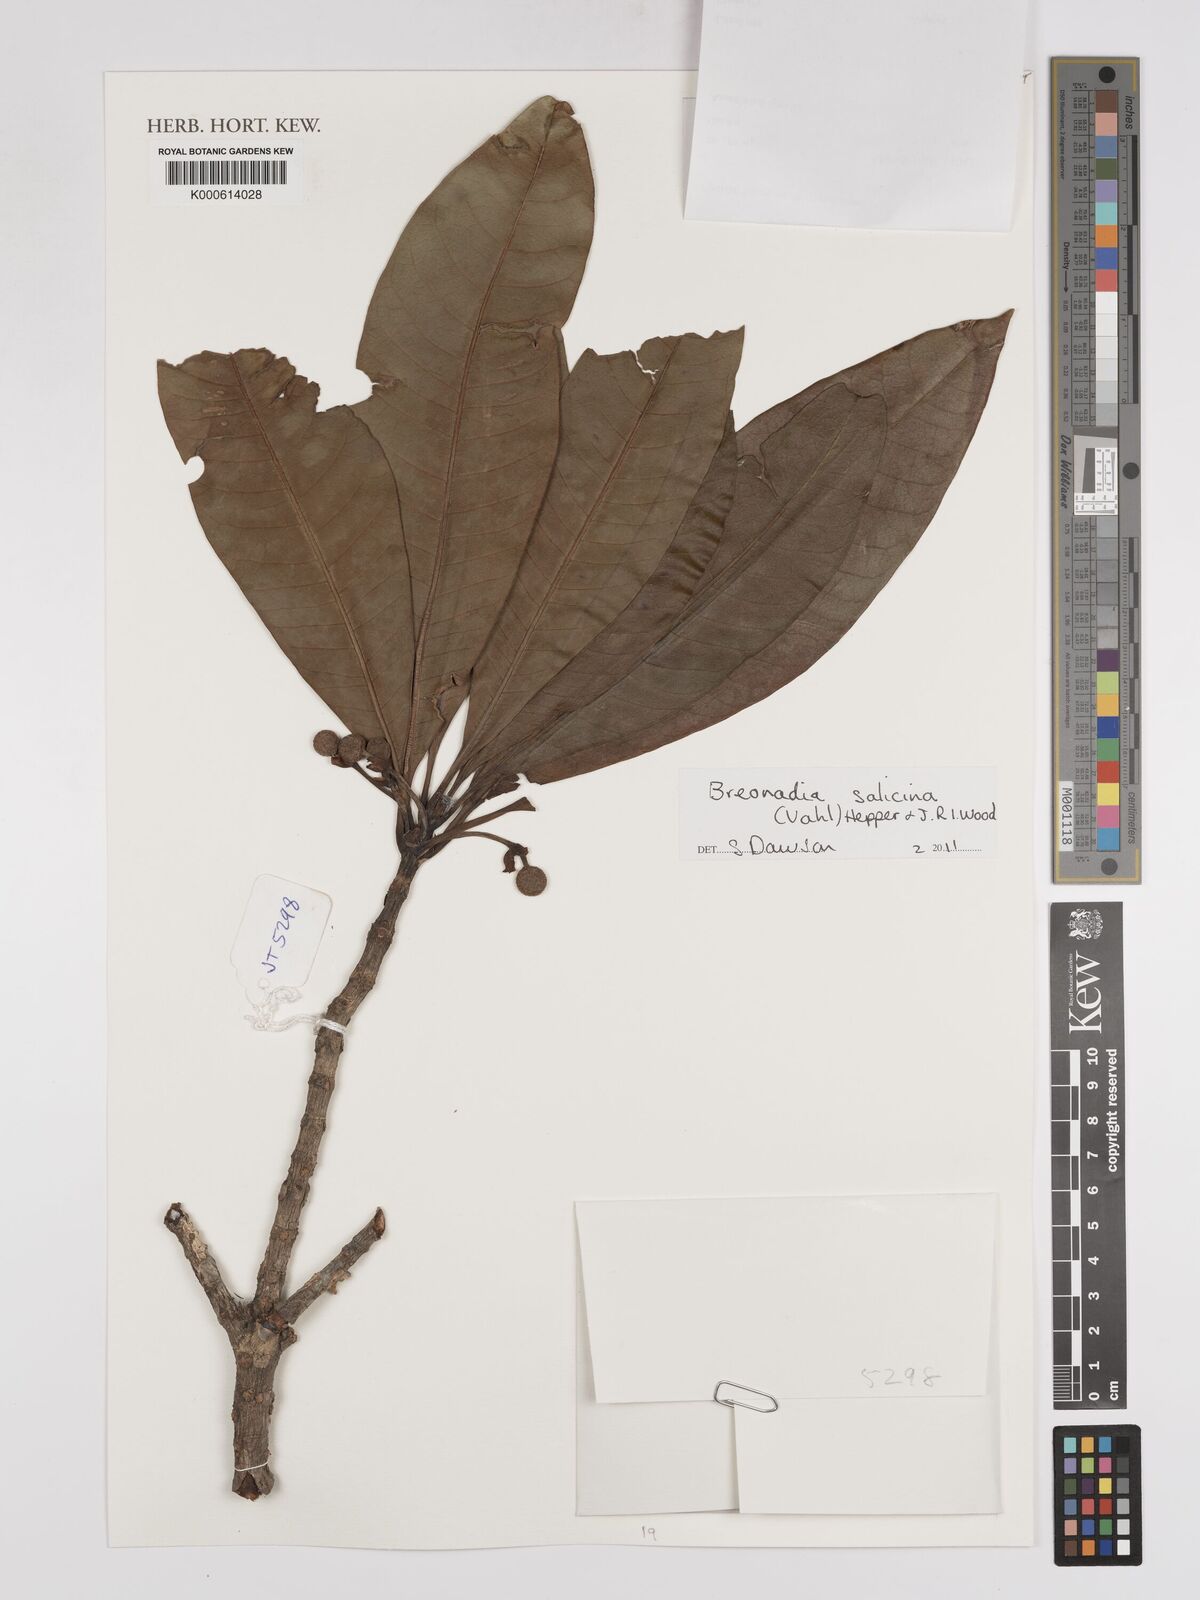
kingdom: Plantae
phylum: Tracheophyta
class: Magnoliopsida
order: Gentianales
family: Rubiaceae
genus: Breonadia
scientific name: Breonadia salicina
